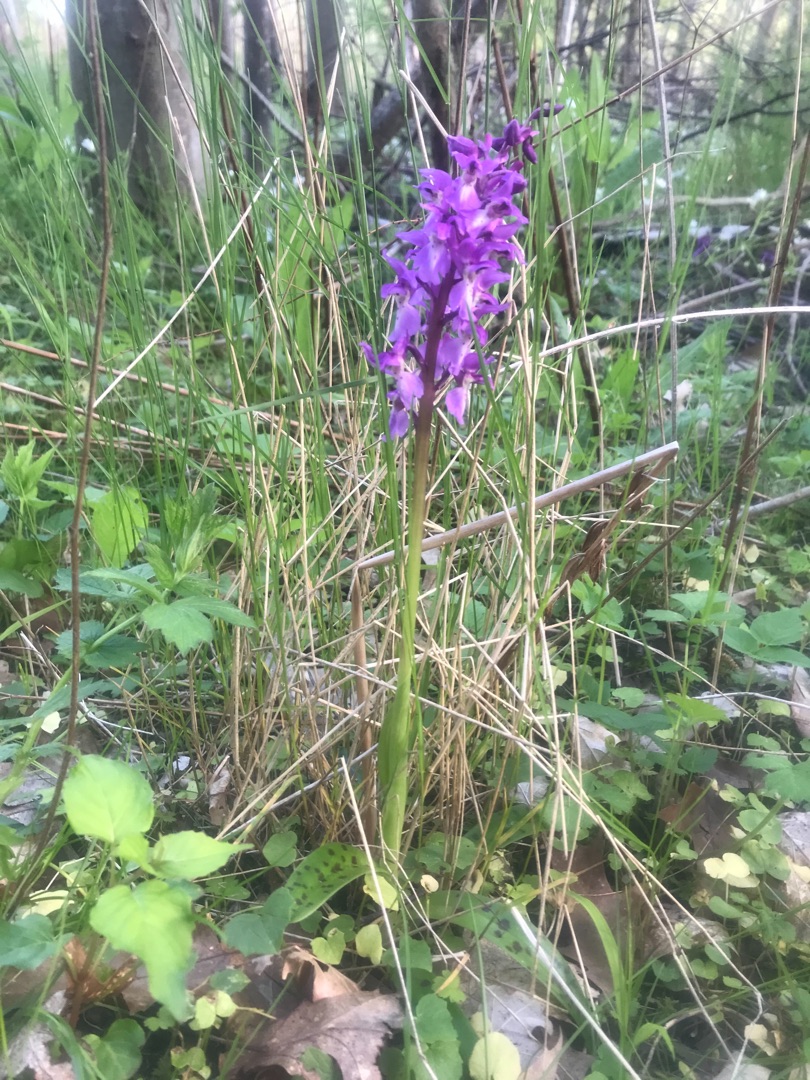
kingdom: Plantae
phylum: Tracheophyta
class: Liliopsida
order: Asparagales
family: Orchidaceae
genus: Orchis
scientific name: Orchis mascula
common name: Tyndakset gøgeurt
